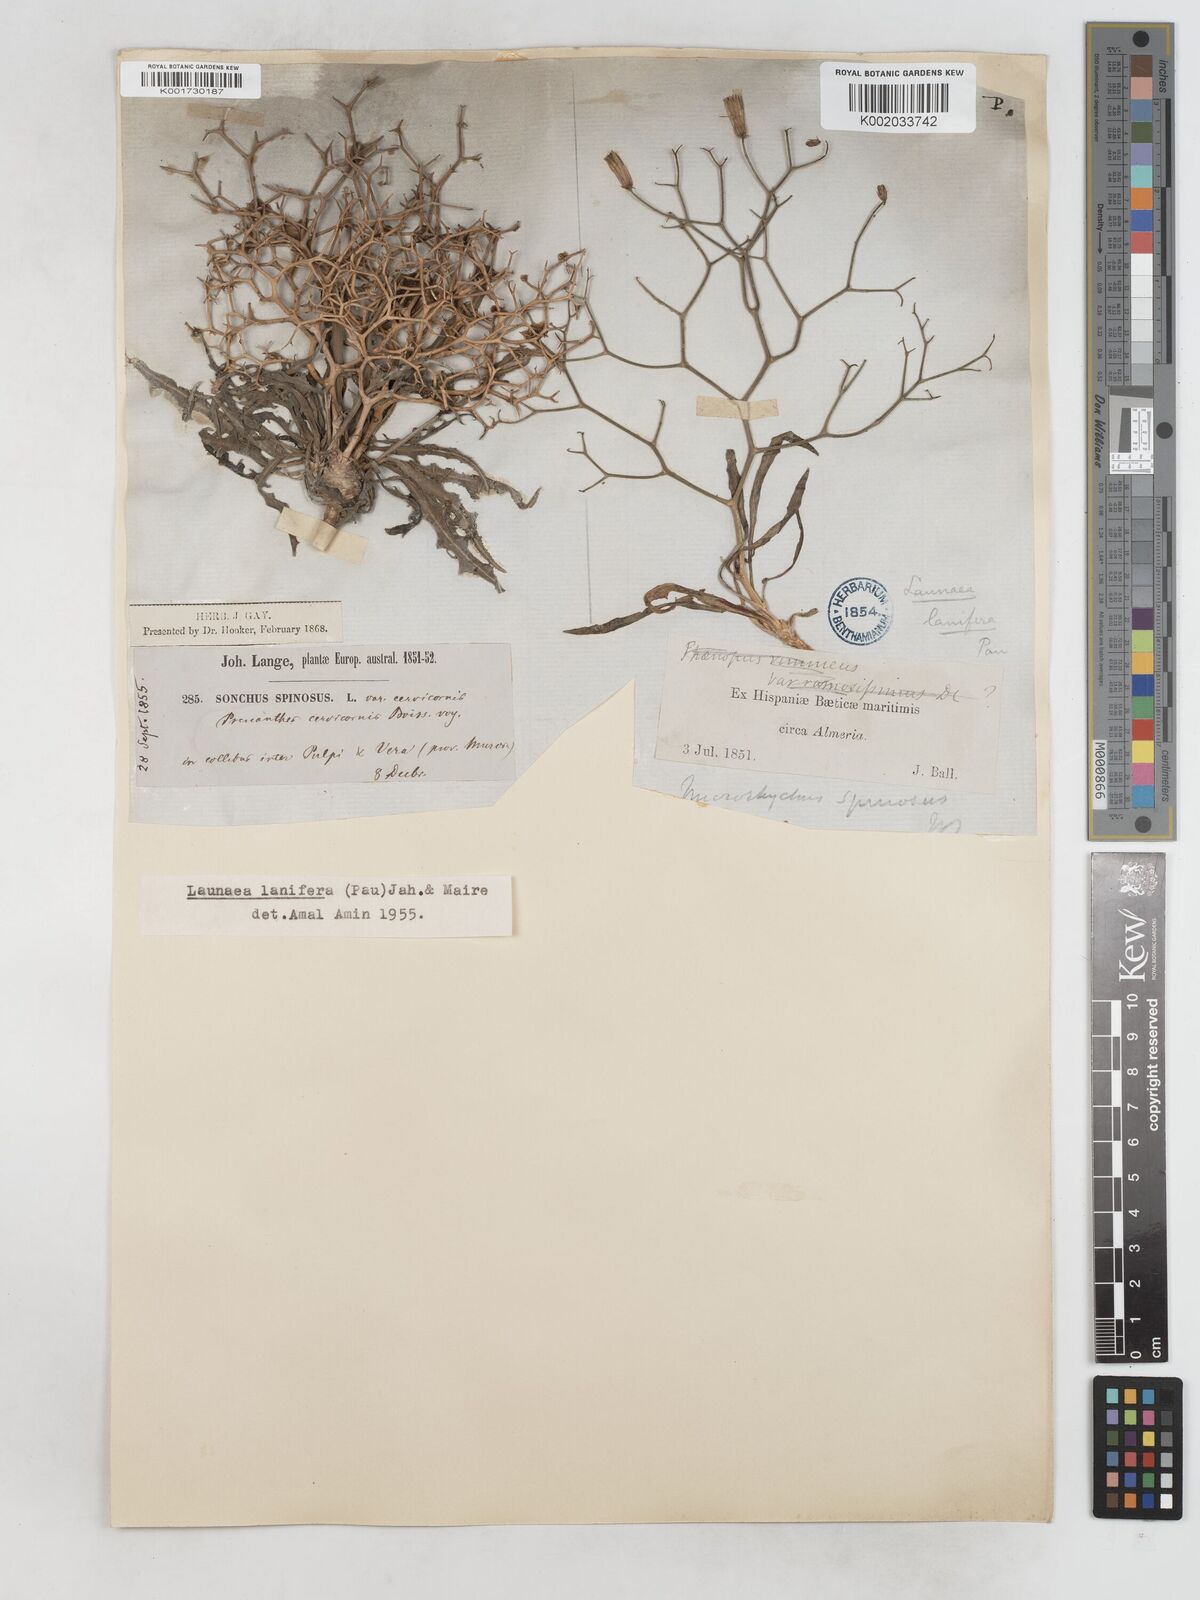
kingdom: Plantae
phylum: Tracheophyta
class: Magnoliopsida
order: Asterales
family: Asteraceae
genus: Launaea
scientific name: Launaea lanifera
